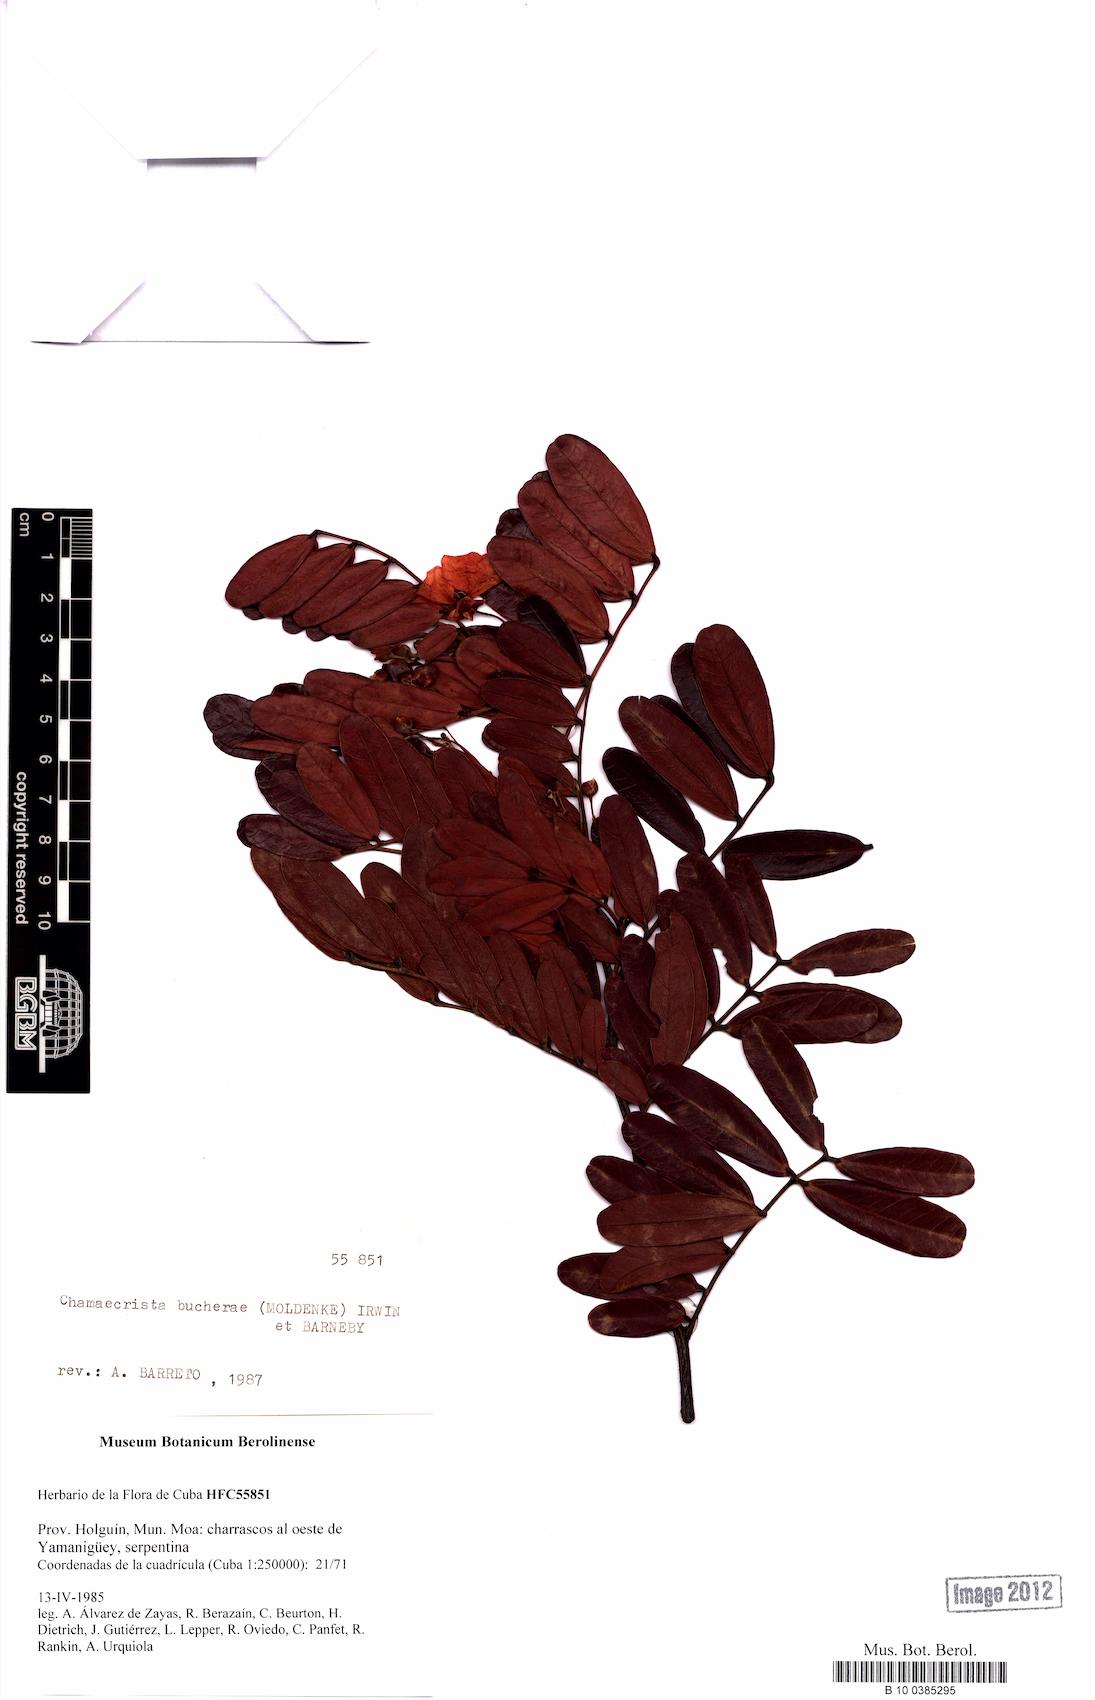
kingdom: Plantae
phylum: Tracheophyta
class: Magnoliopsida
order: Fabales
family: Fabaceae
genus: Chamaecrista
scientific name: Chamaecrista bucherae
